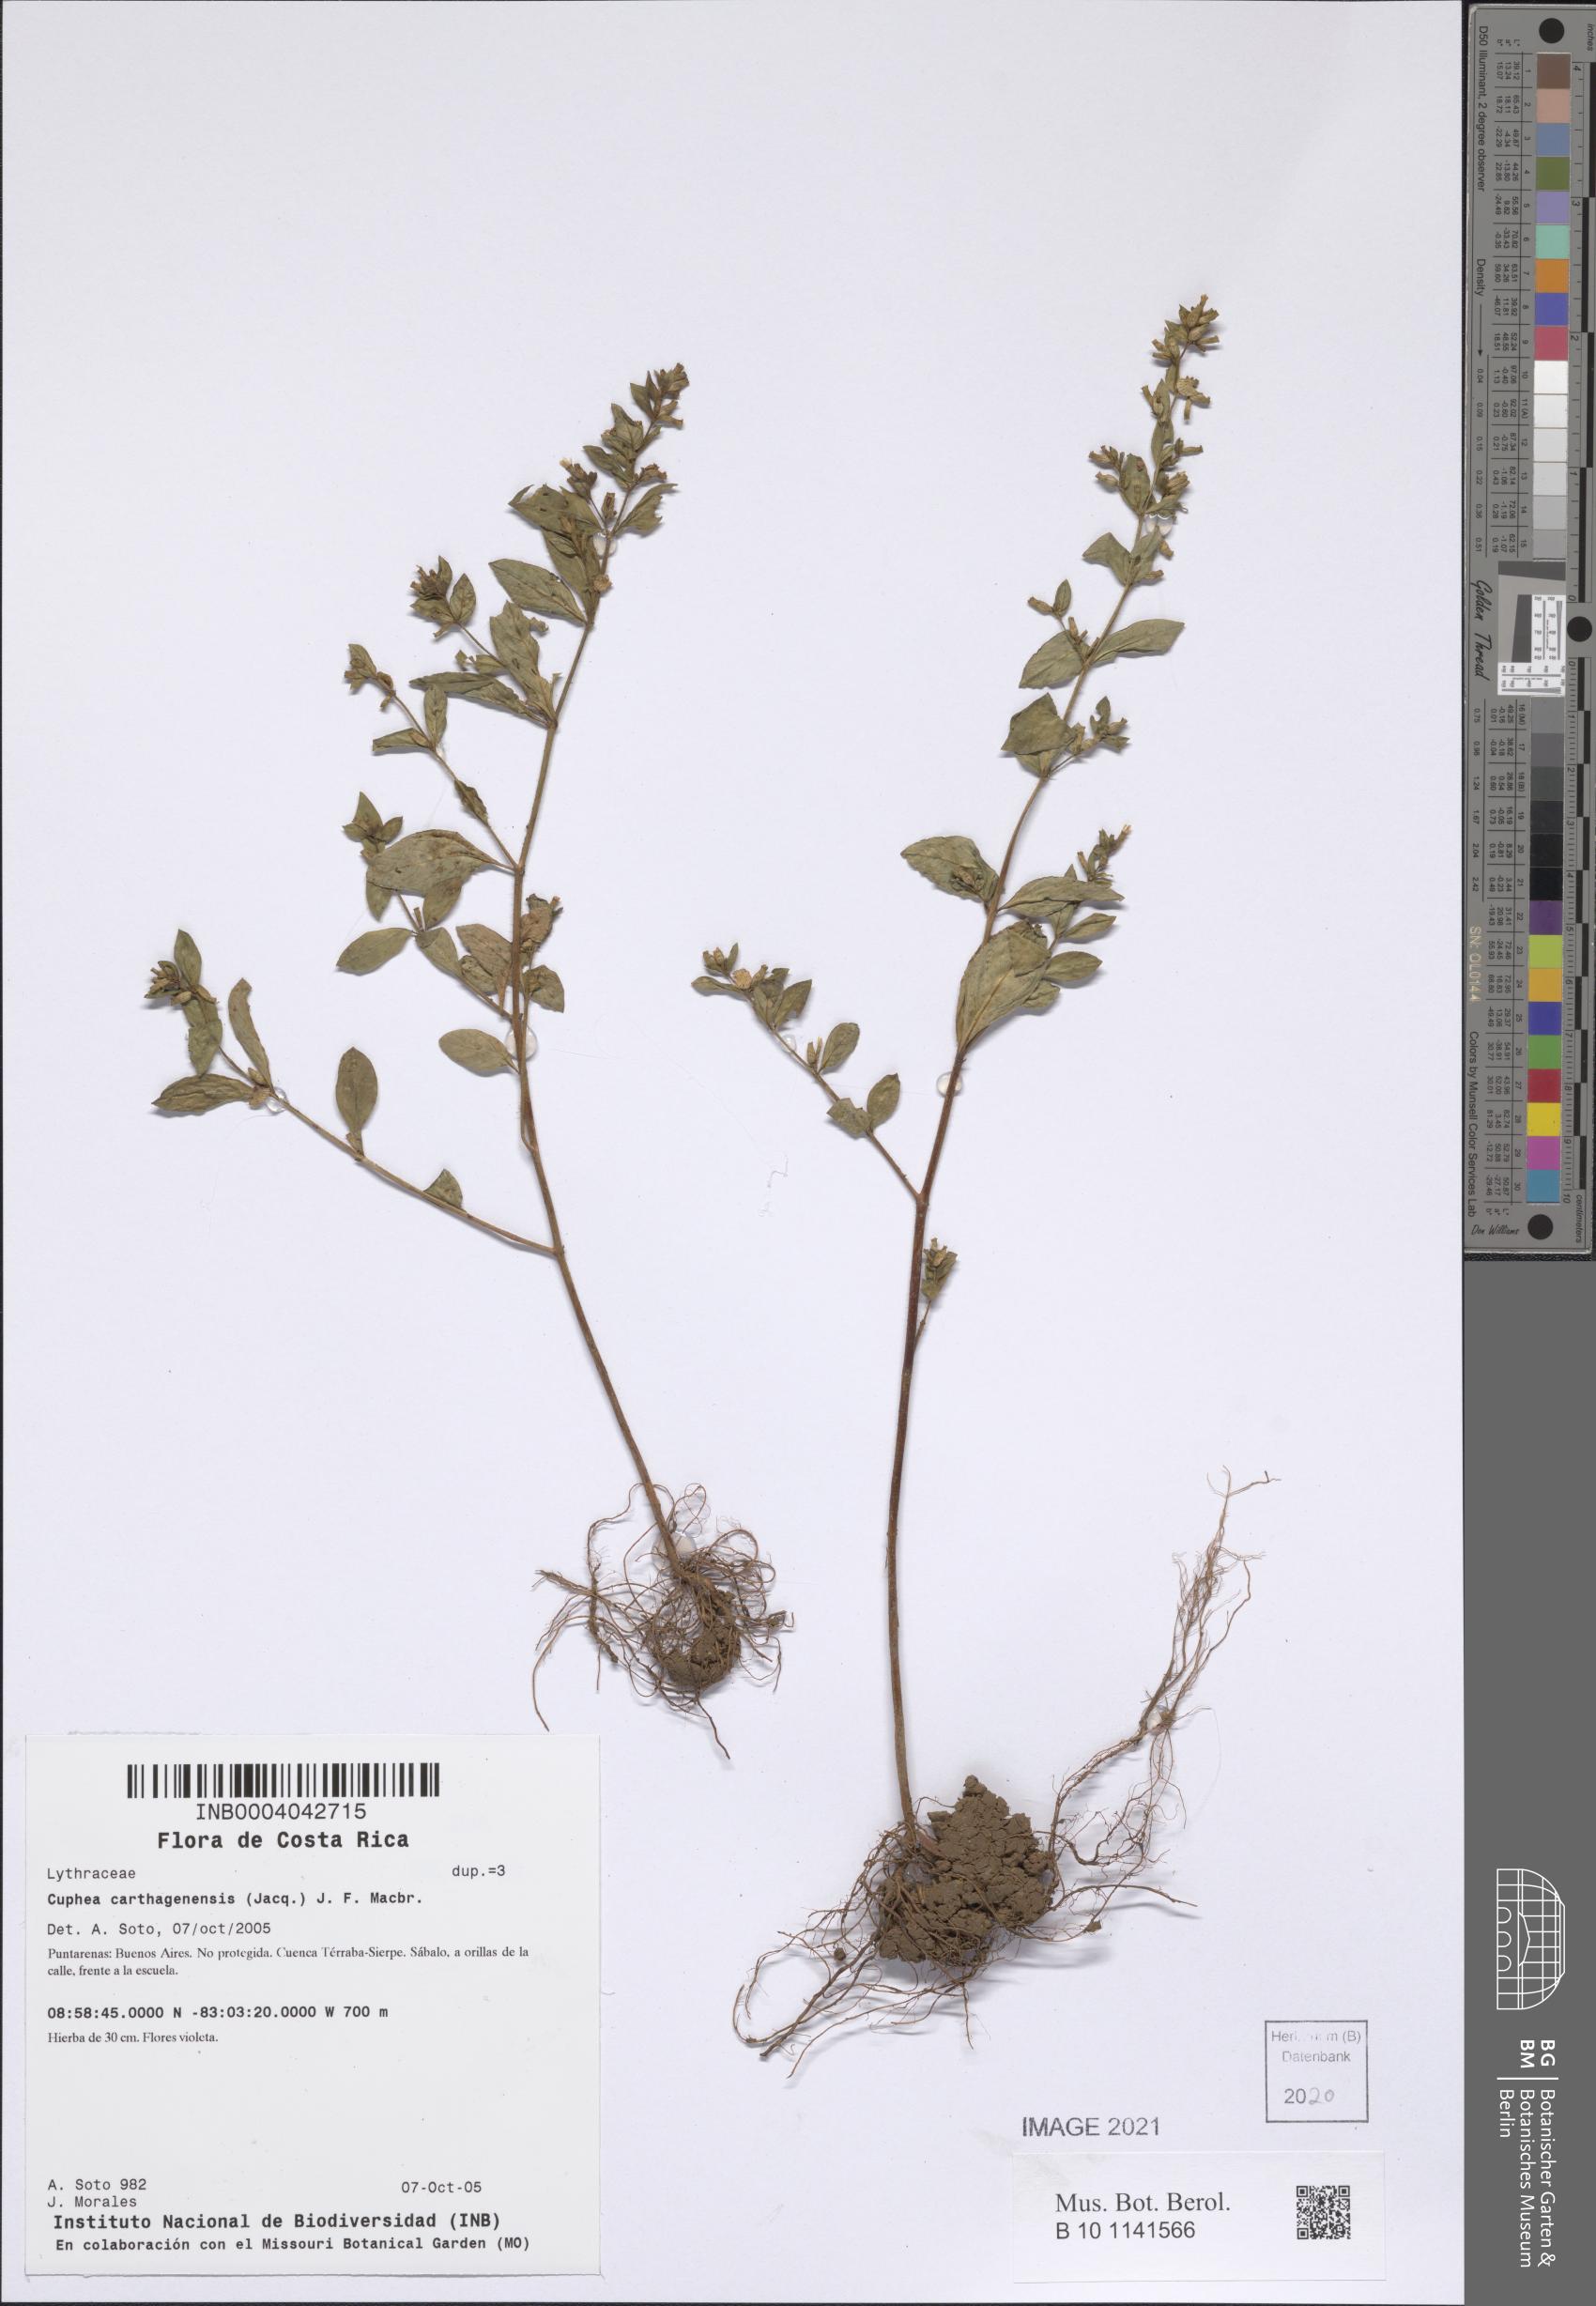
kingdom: Plantae
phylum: Tracheophyta
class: Magnoliopsida
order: Myrtales
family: Lythraceae
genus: Cuphea
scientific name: Cuphea carthagenensis
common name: Colombian waxweed
